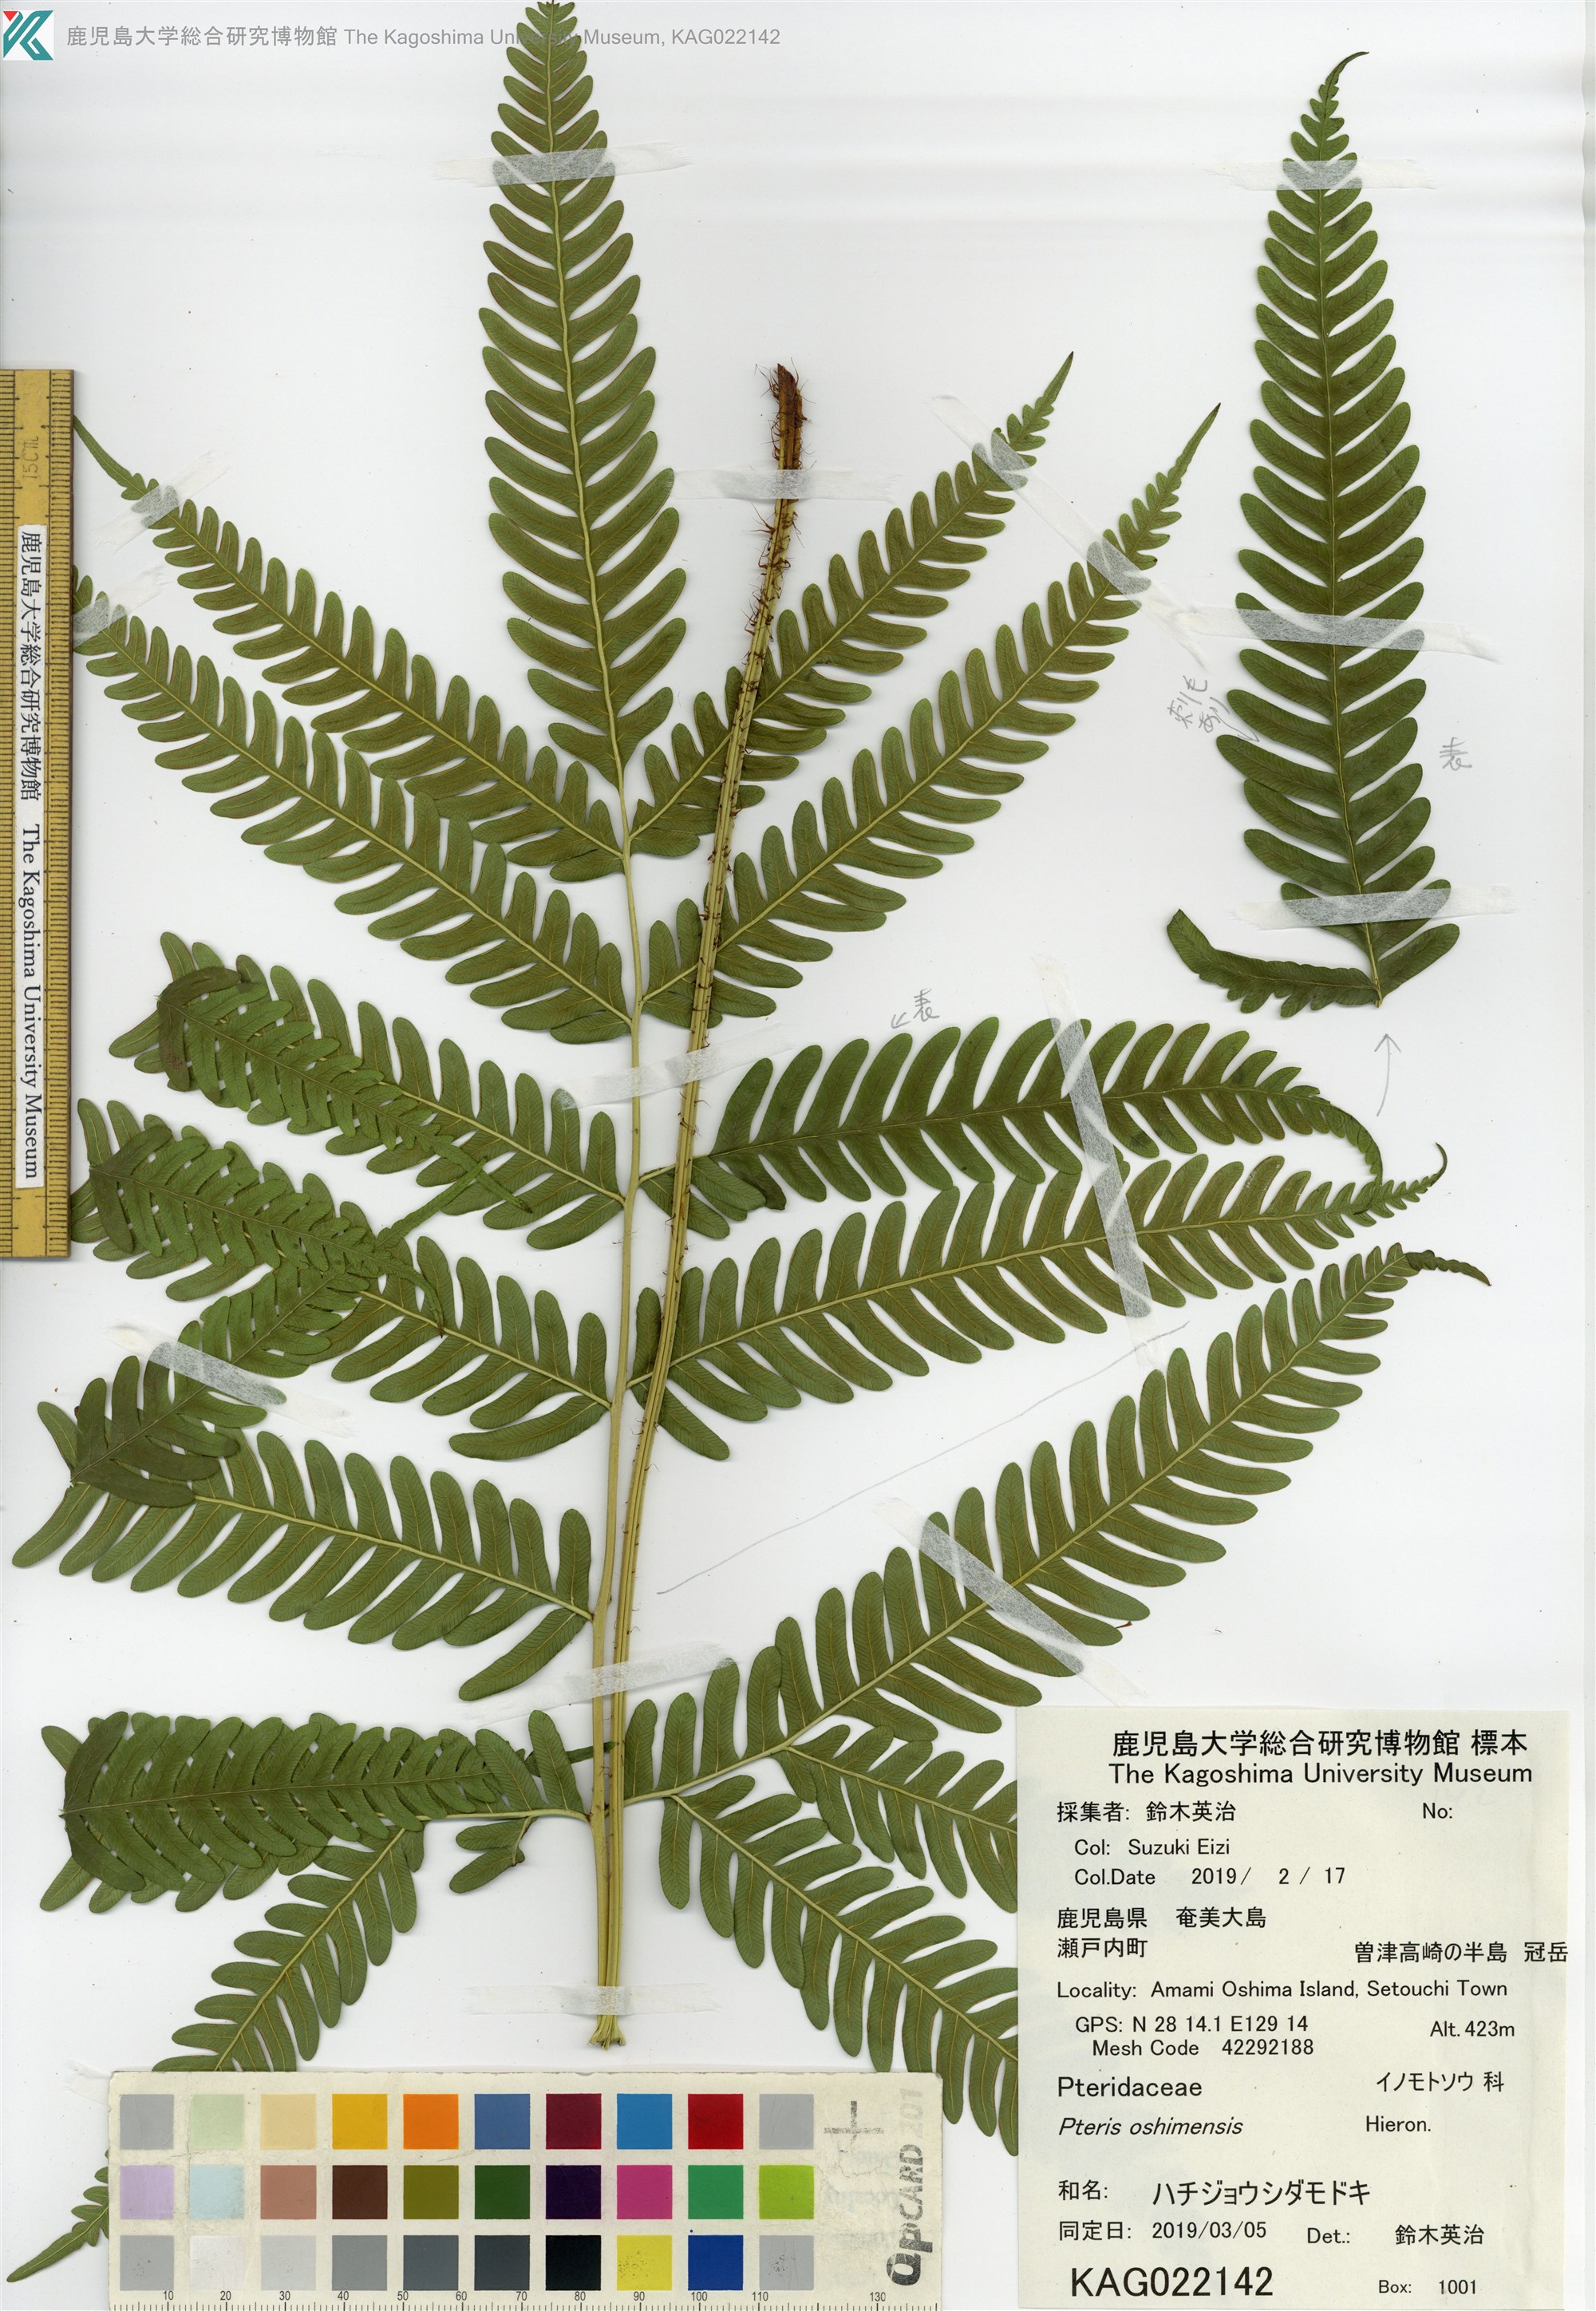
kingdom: Plantae
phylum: Tracheophyta
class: Polypodiopsida
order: Polypodiales
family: Pteridaceae
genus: Pteris
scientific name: Pteris oshimensis
